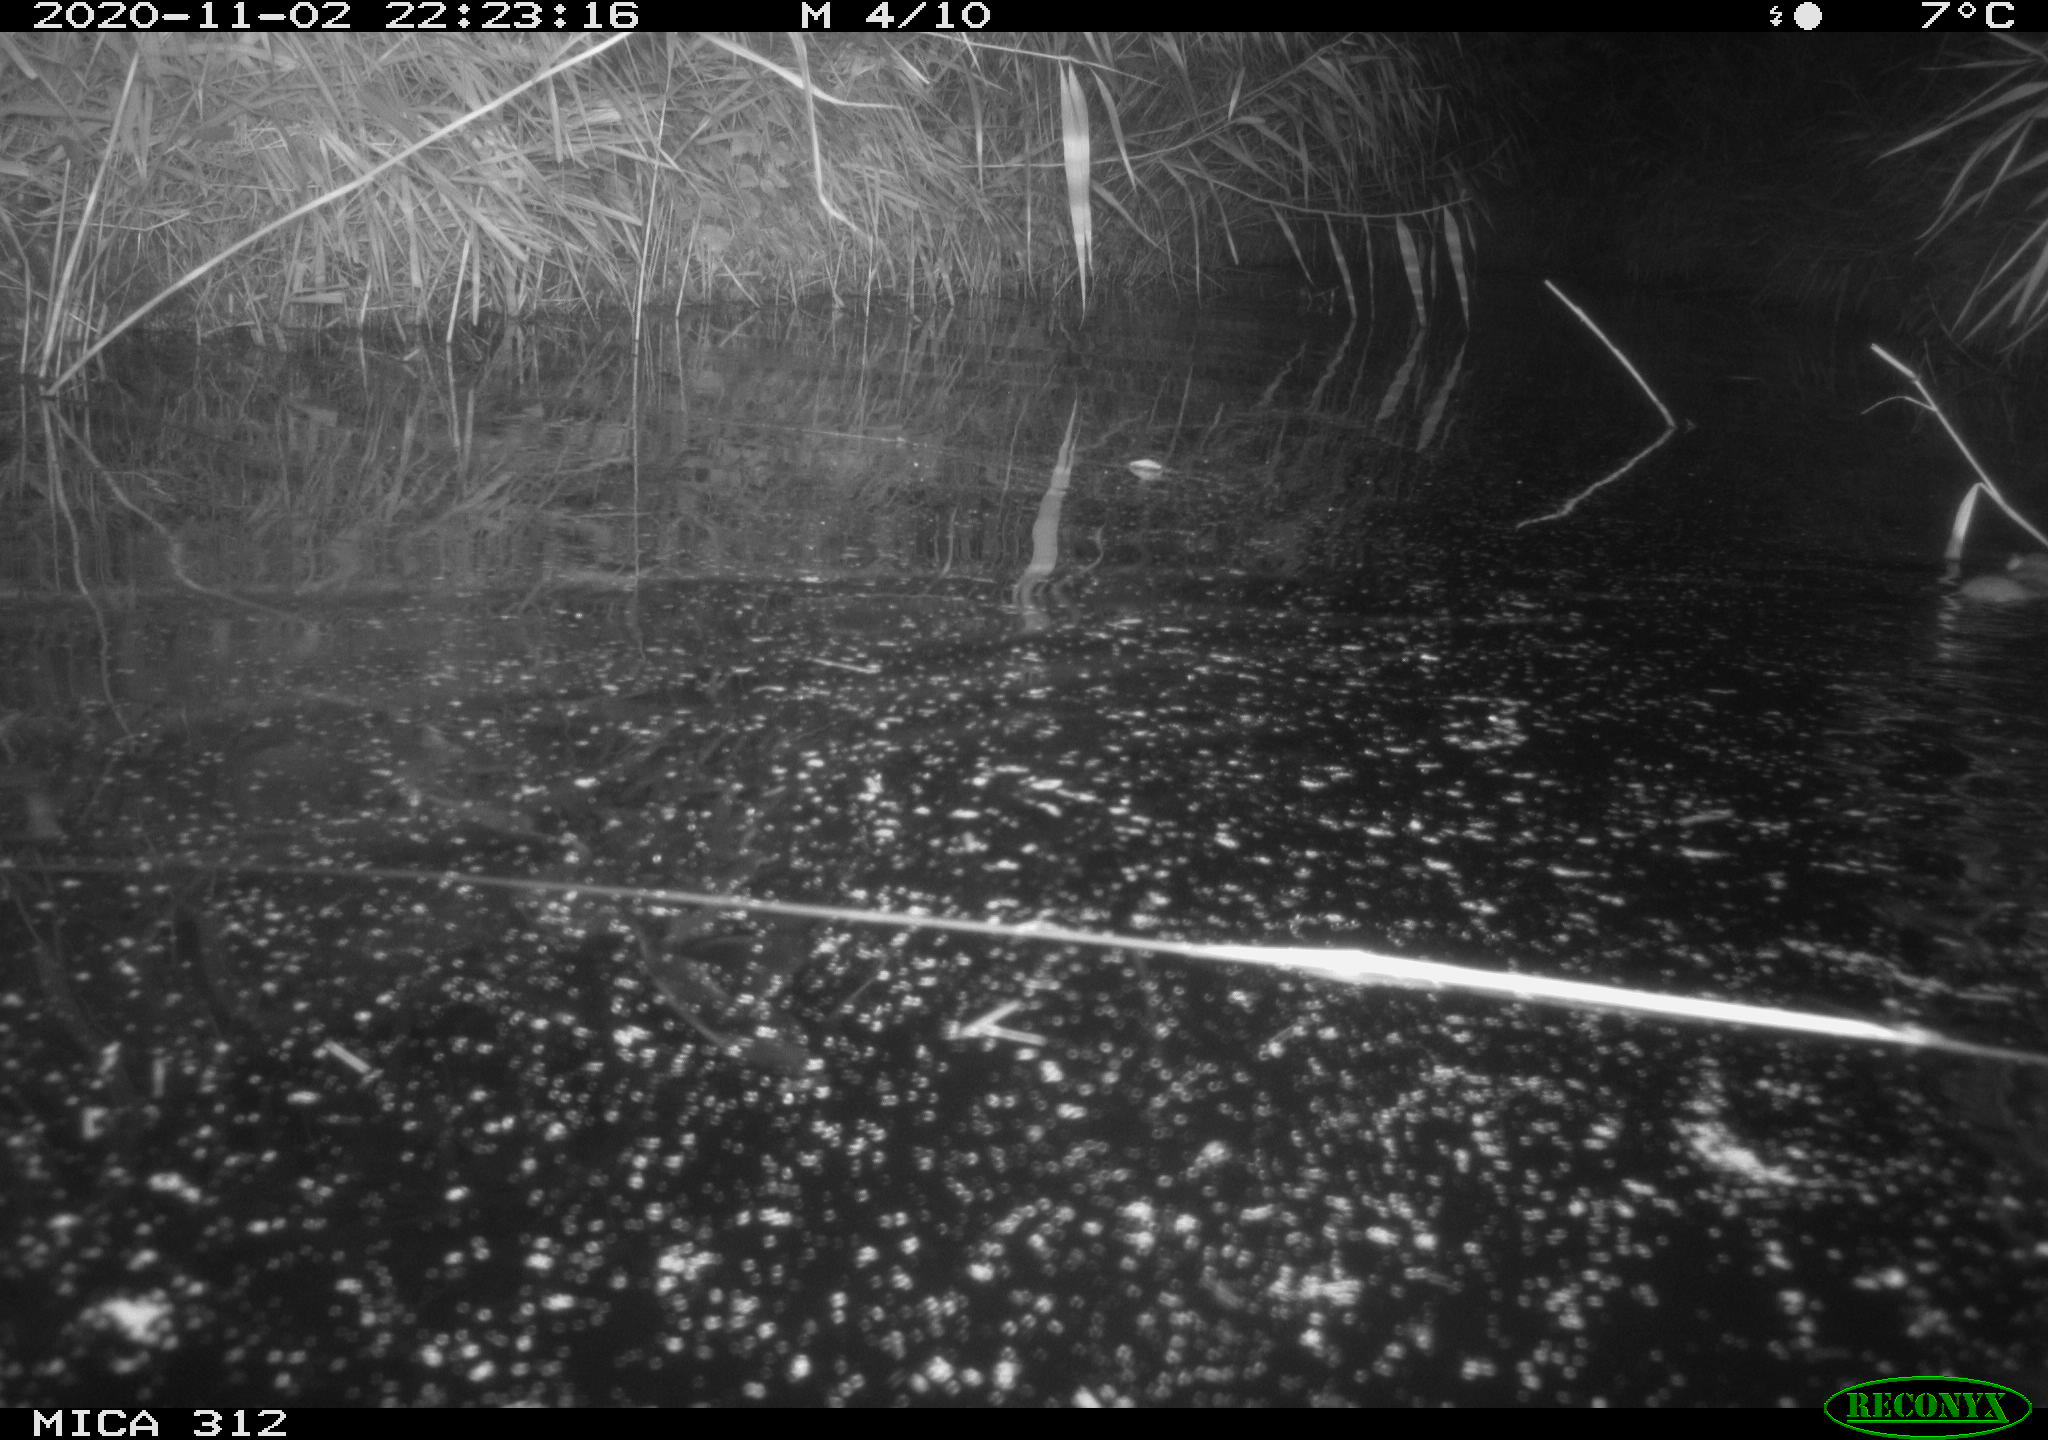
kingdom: Animalia
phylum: Chordata
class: Mammalia
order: Rodentia
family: Muridae
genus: Rattus
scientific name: Rattus norvegicus
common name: Brown rat
